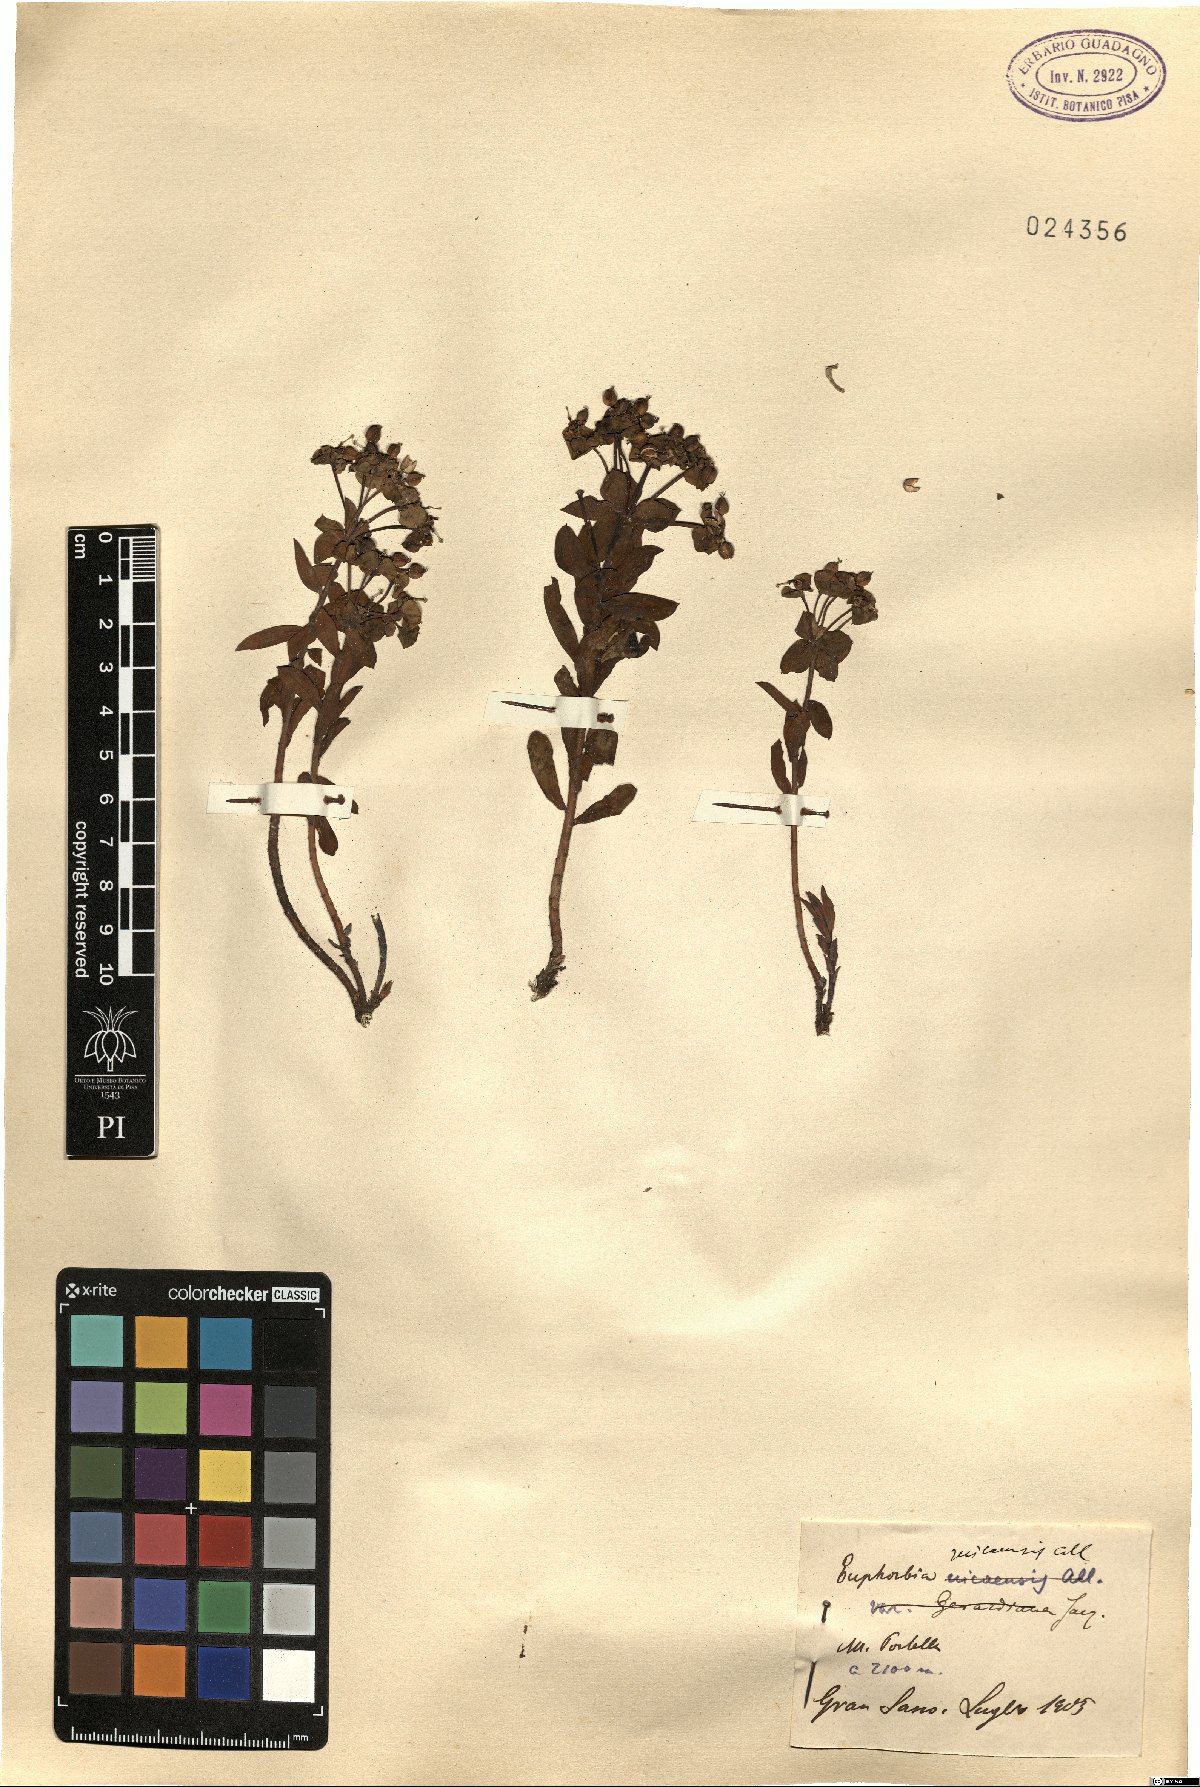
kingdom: Plantae
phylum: Tracheophyta
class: Magnoliopsida
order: Malpighiales
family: Euphorbiaceae
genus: Euphorbia
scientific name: Euphorbia nicaeensis
